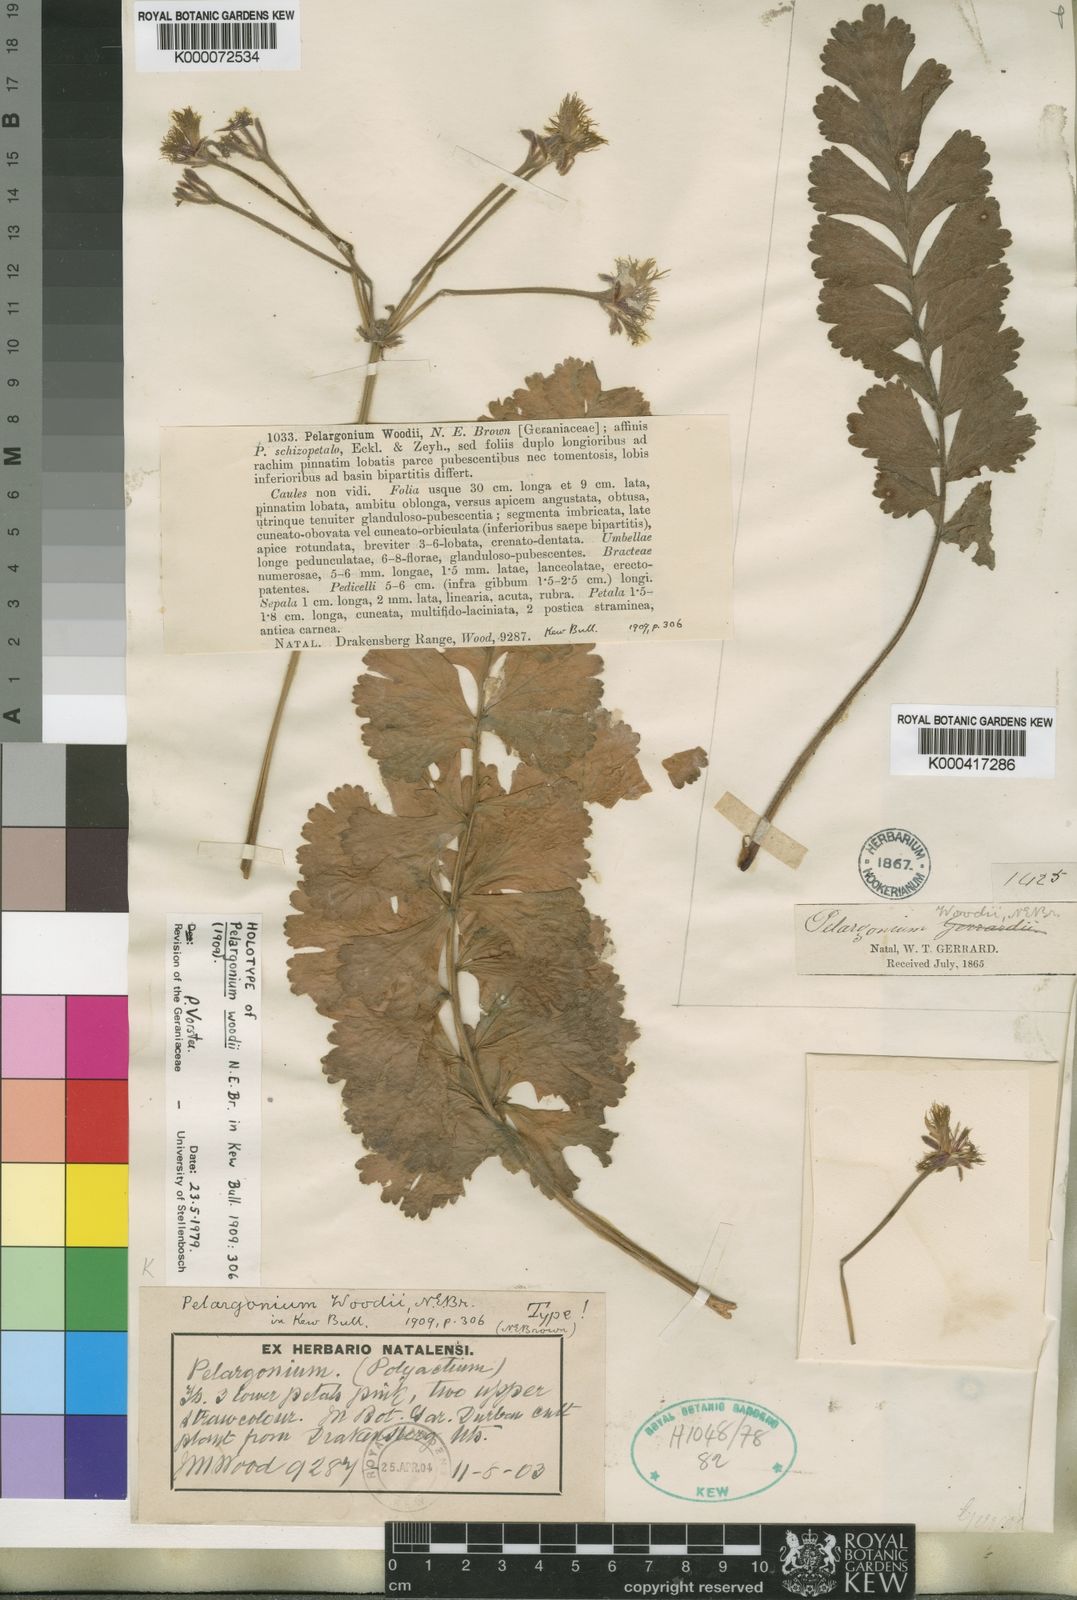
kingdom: Plantae
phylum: Tracheophyta
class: Magnoliopsida
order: Geraniales
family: Geraniaceae
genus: Pelargonium
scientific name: Pelargonium bowkeri
